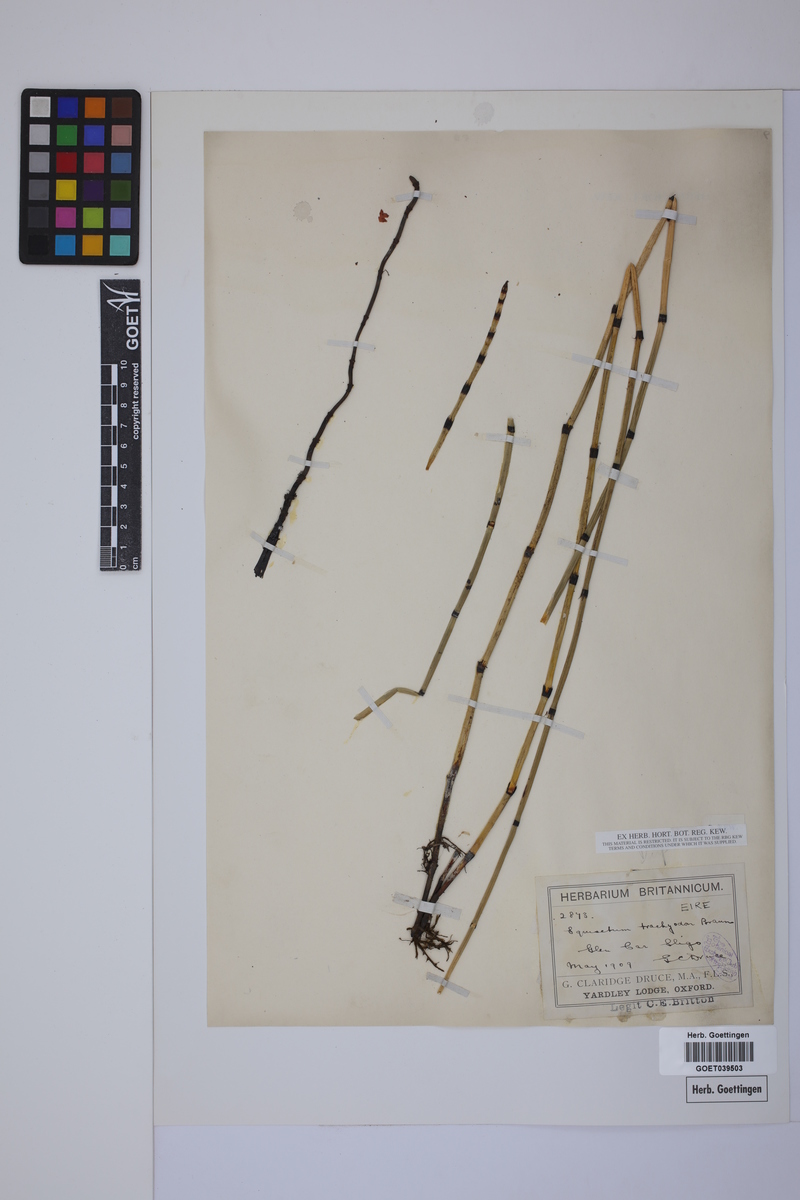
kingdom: Plantae
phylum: Tracheophyta
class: Polypodiopsida
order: Equisetales
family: Equisetaceae
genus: Equisetum
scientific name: Equisetum telmateia
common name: Great horsetail
